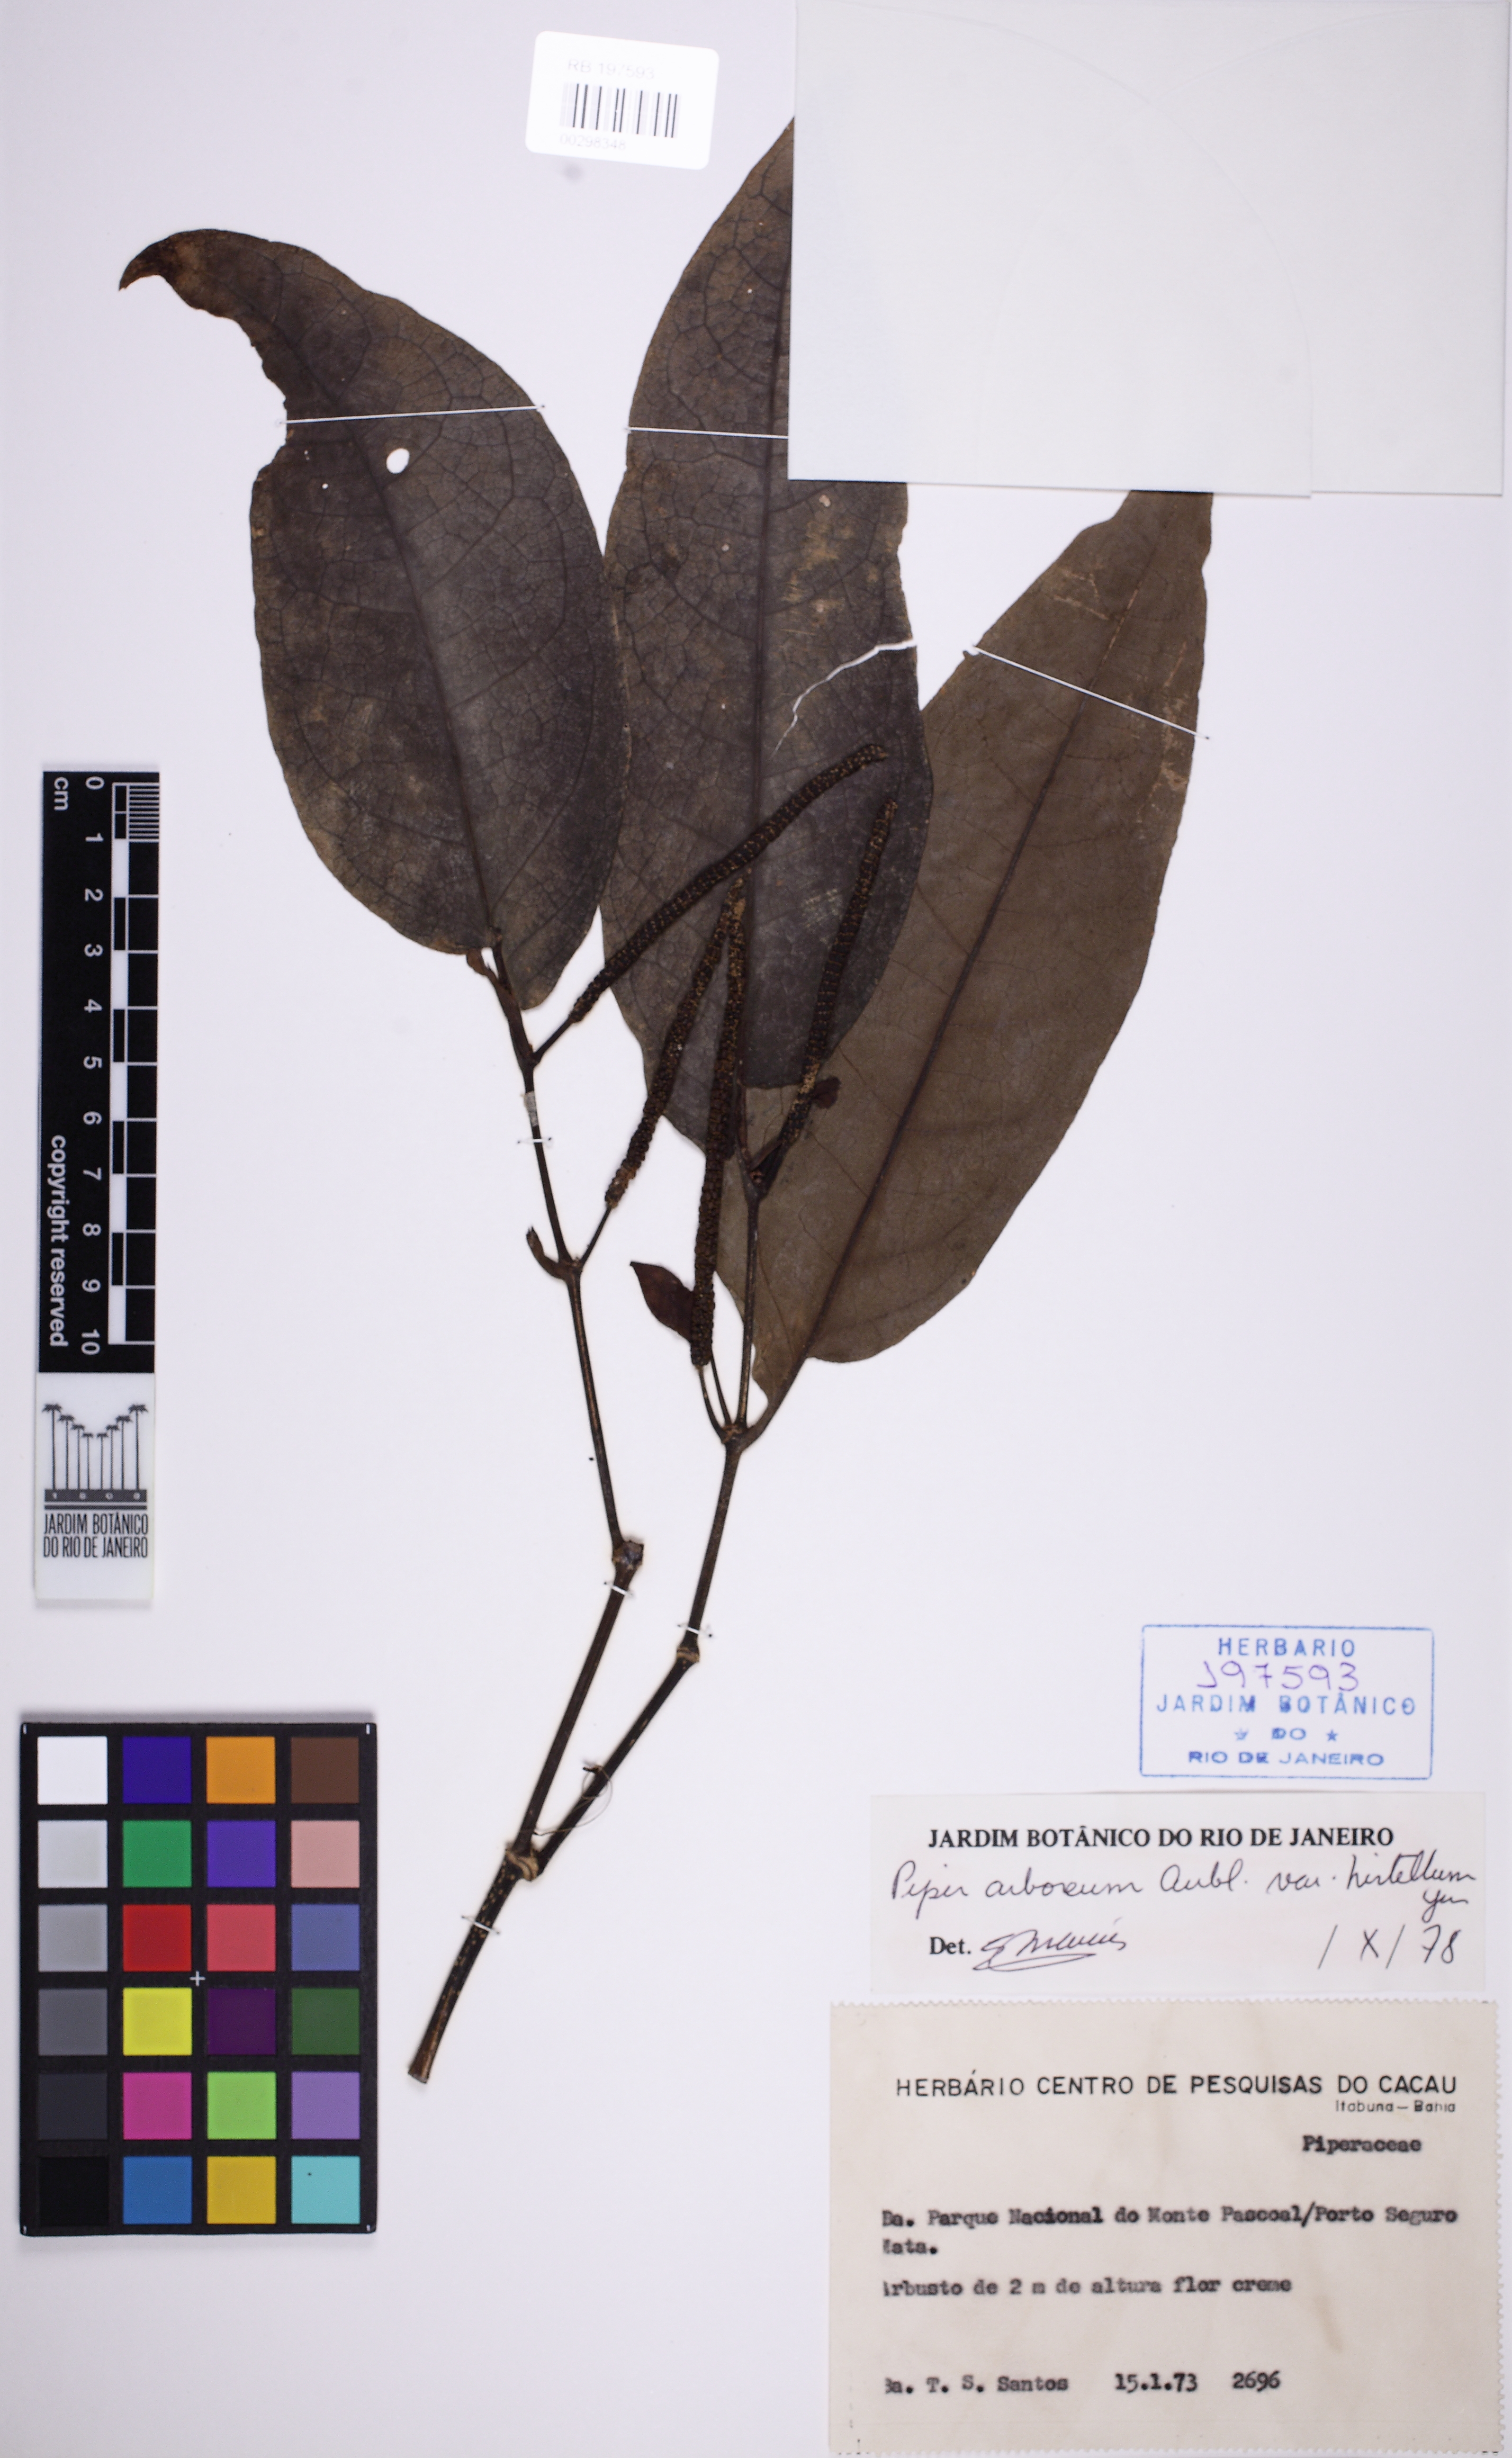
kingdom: Plantae
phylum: Tracheophyta
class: Magnoliopsida
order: Piperales
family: Piperaceae
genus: Piper
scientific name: Piper arboreum
